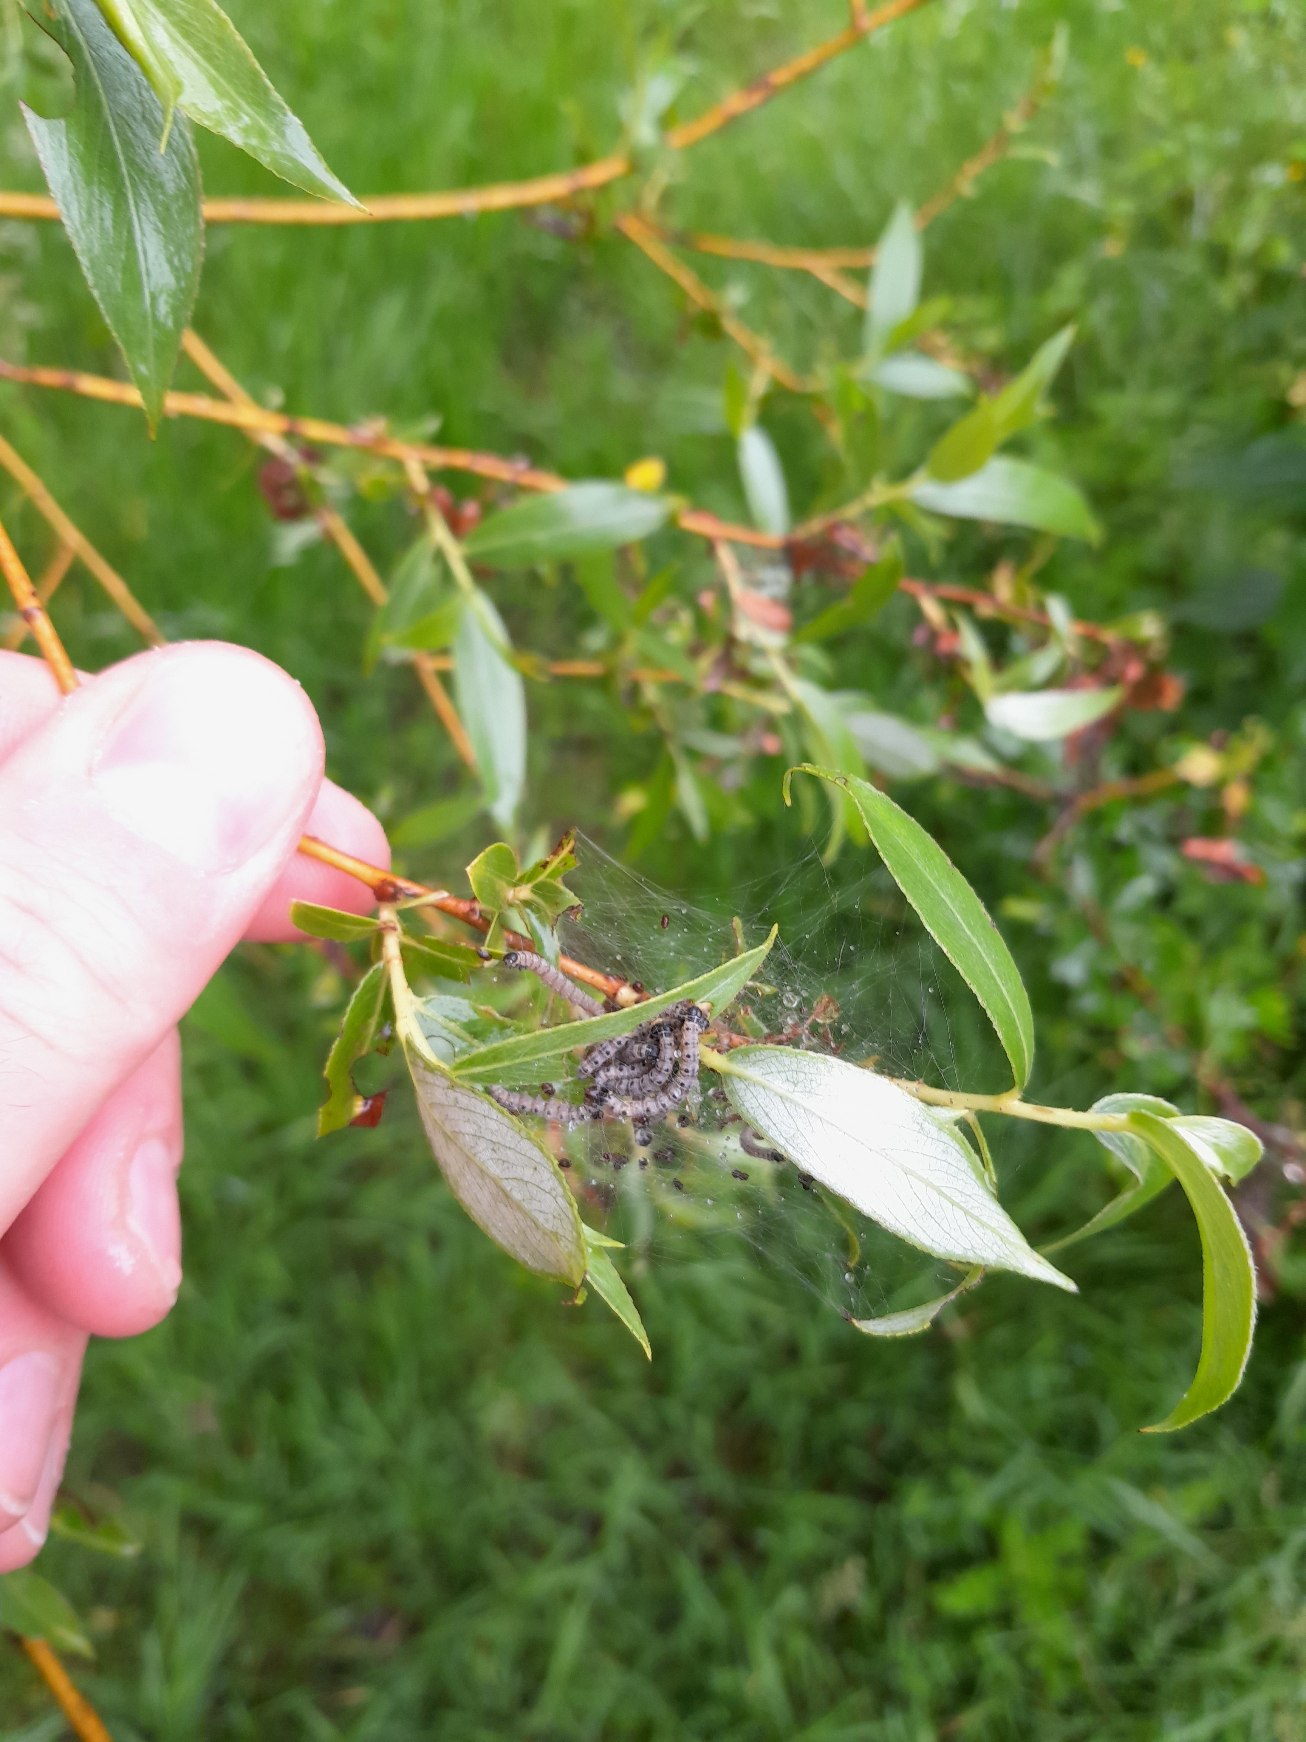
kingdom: Animalia
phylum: Arthropoda
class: Insecta
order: Lepidoptera
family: Yponomeutidae
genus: Yponomeuta
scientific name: Yponomeuta padella
